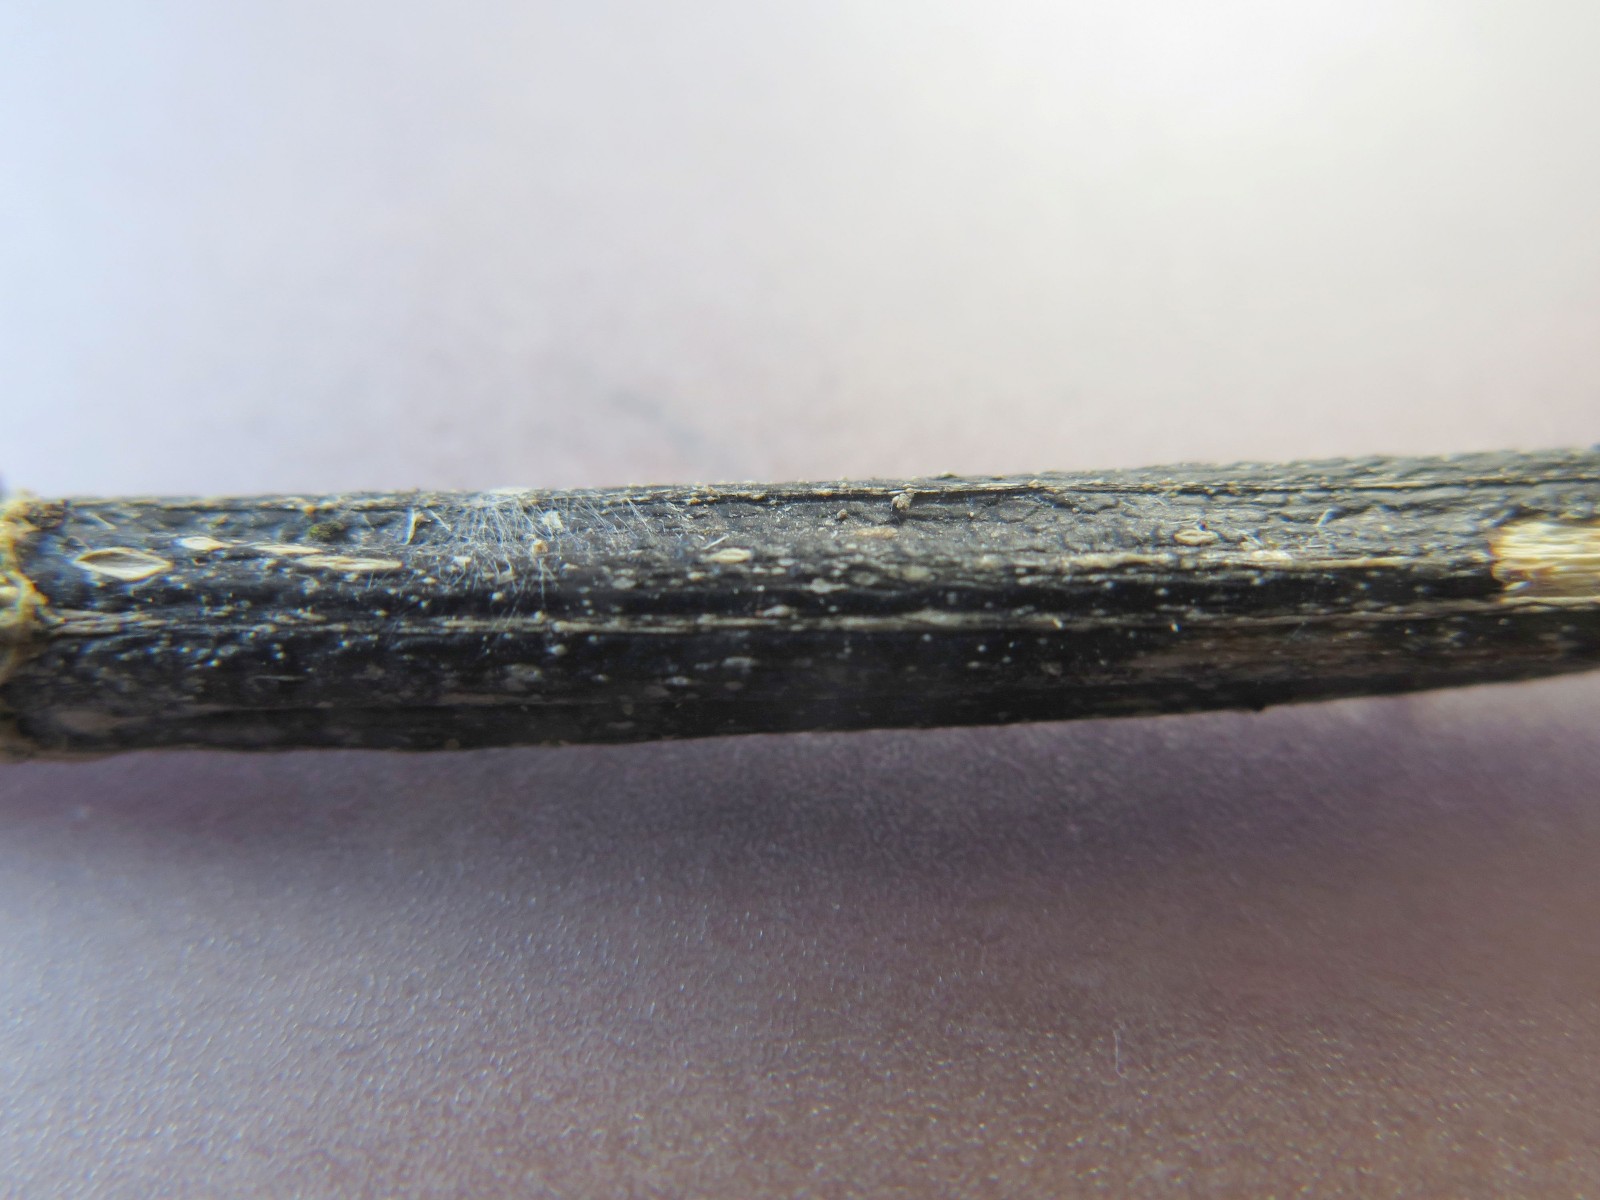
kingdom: Fungi
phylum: Ascomycota
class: Sordariomycetes
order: Diaporthales
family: Diaporthaceae
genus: Diaporthopsis
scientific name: Diaporthopsis urticae
